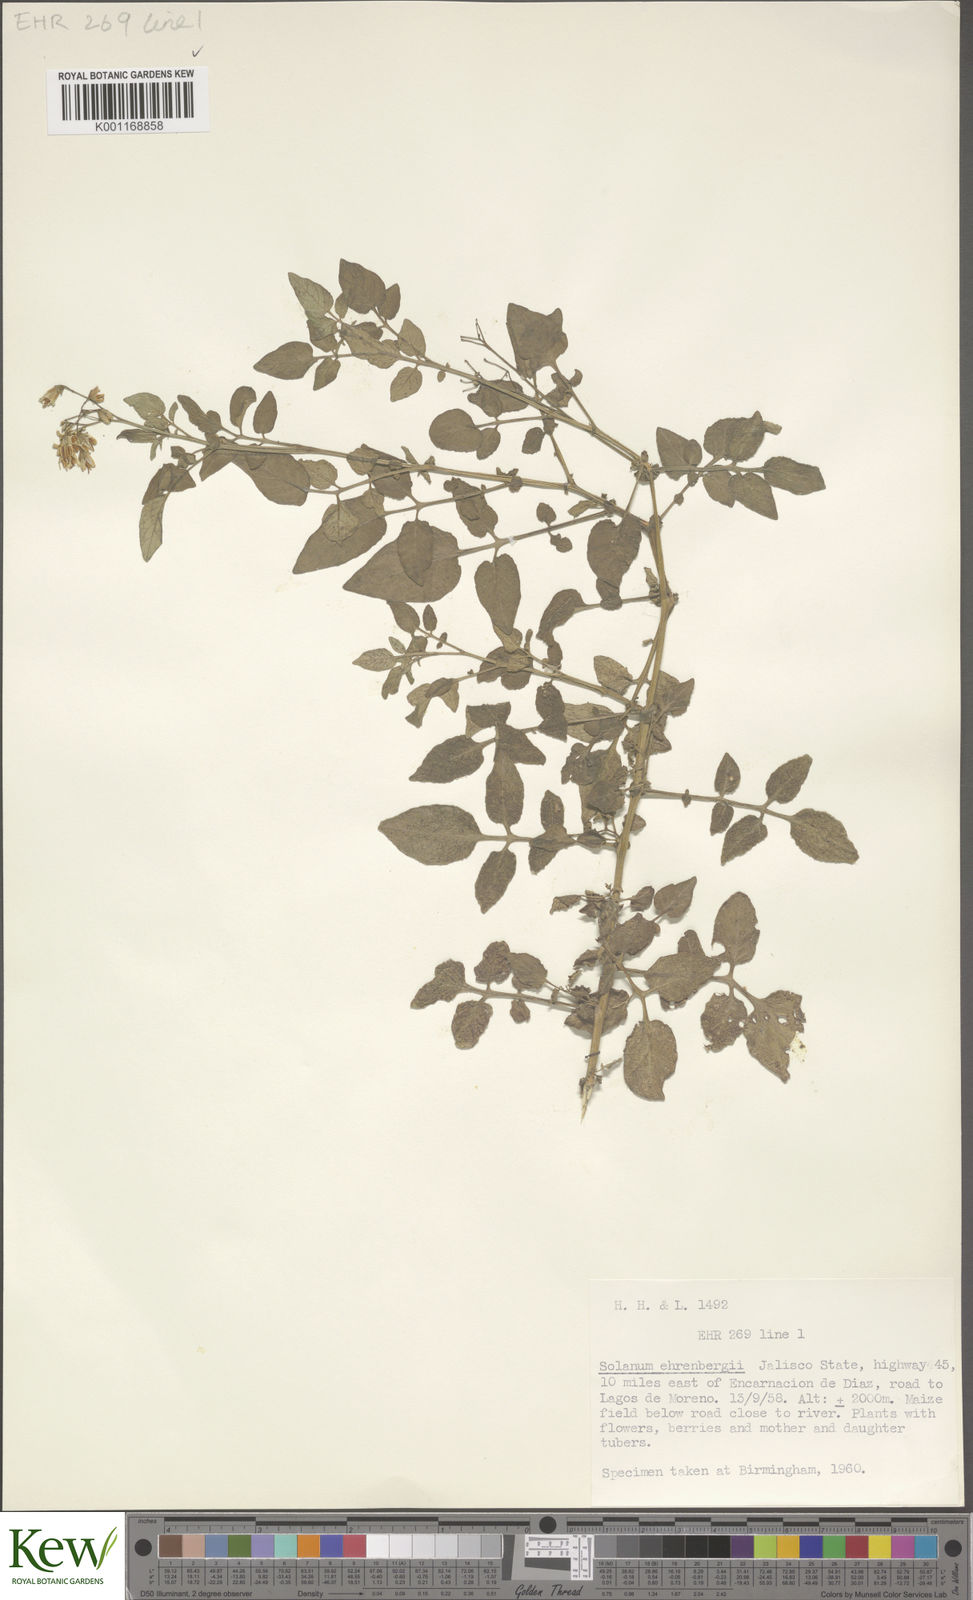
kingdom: Plantae
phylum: Tracheophyta
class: Magnoliopsida
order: Solanales
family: Solanaceae
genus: Solanum
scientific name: Solanum ehrenbergii
